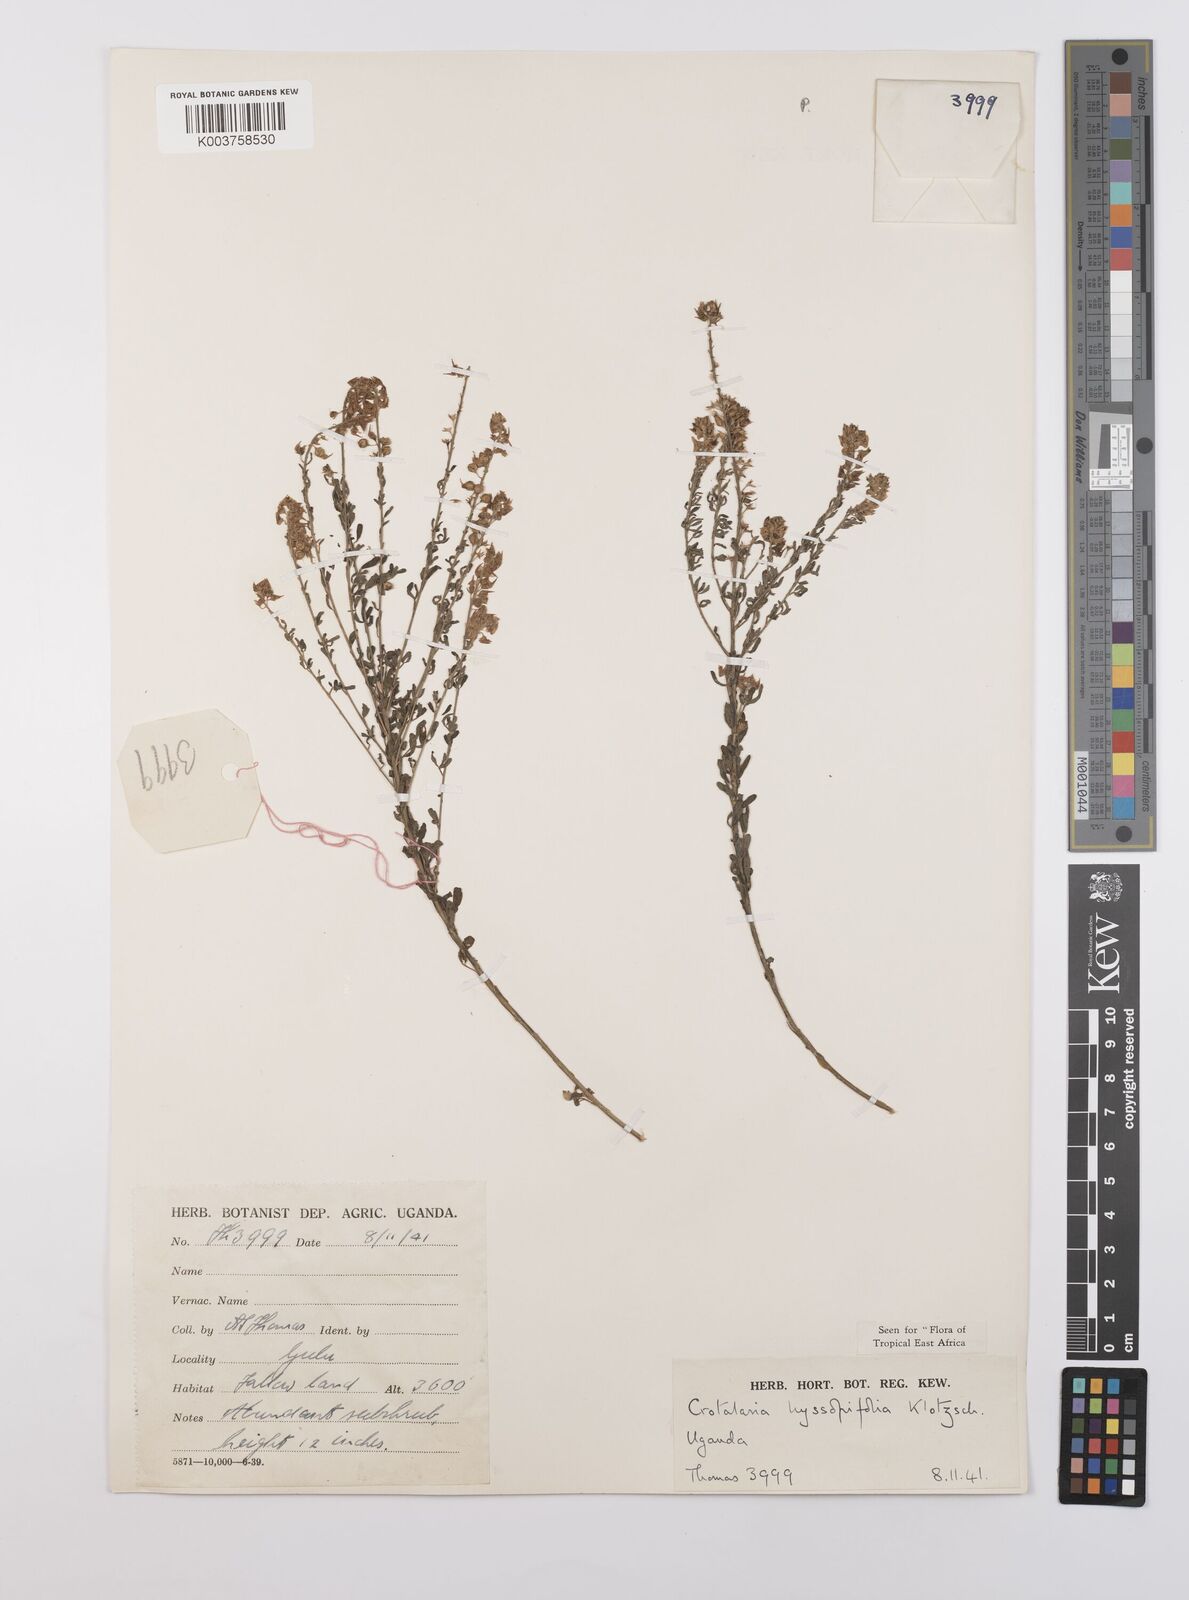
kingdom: Plantae
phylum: Tracheophyta
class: Magnoliopsida
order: Fabales
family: Fabaceae
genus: Crotalaria
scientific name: Crotalaria hyssopifolia
